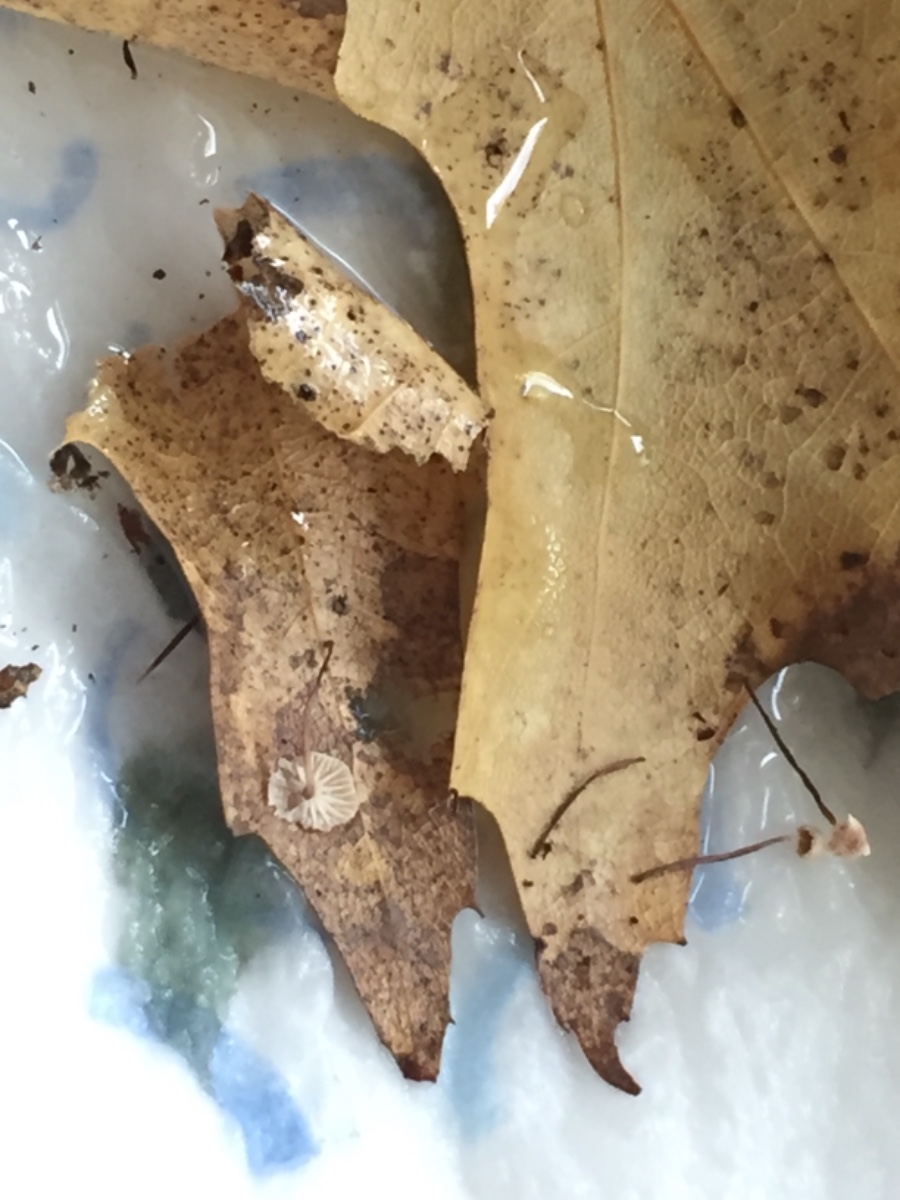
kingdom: Fungi
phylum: Basidiomycota
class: Agaricomycetes
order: Agaricales
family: Omphalotaceae
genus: Collybiopsis
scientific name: Collybiopsis quercophila
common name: egeblads-bruskhat
